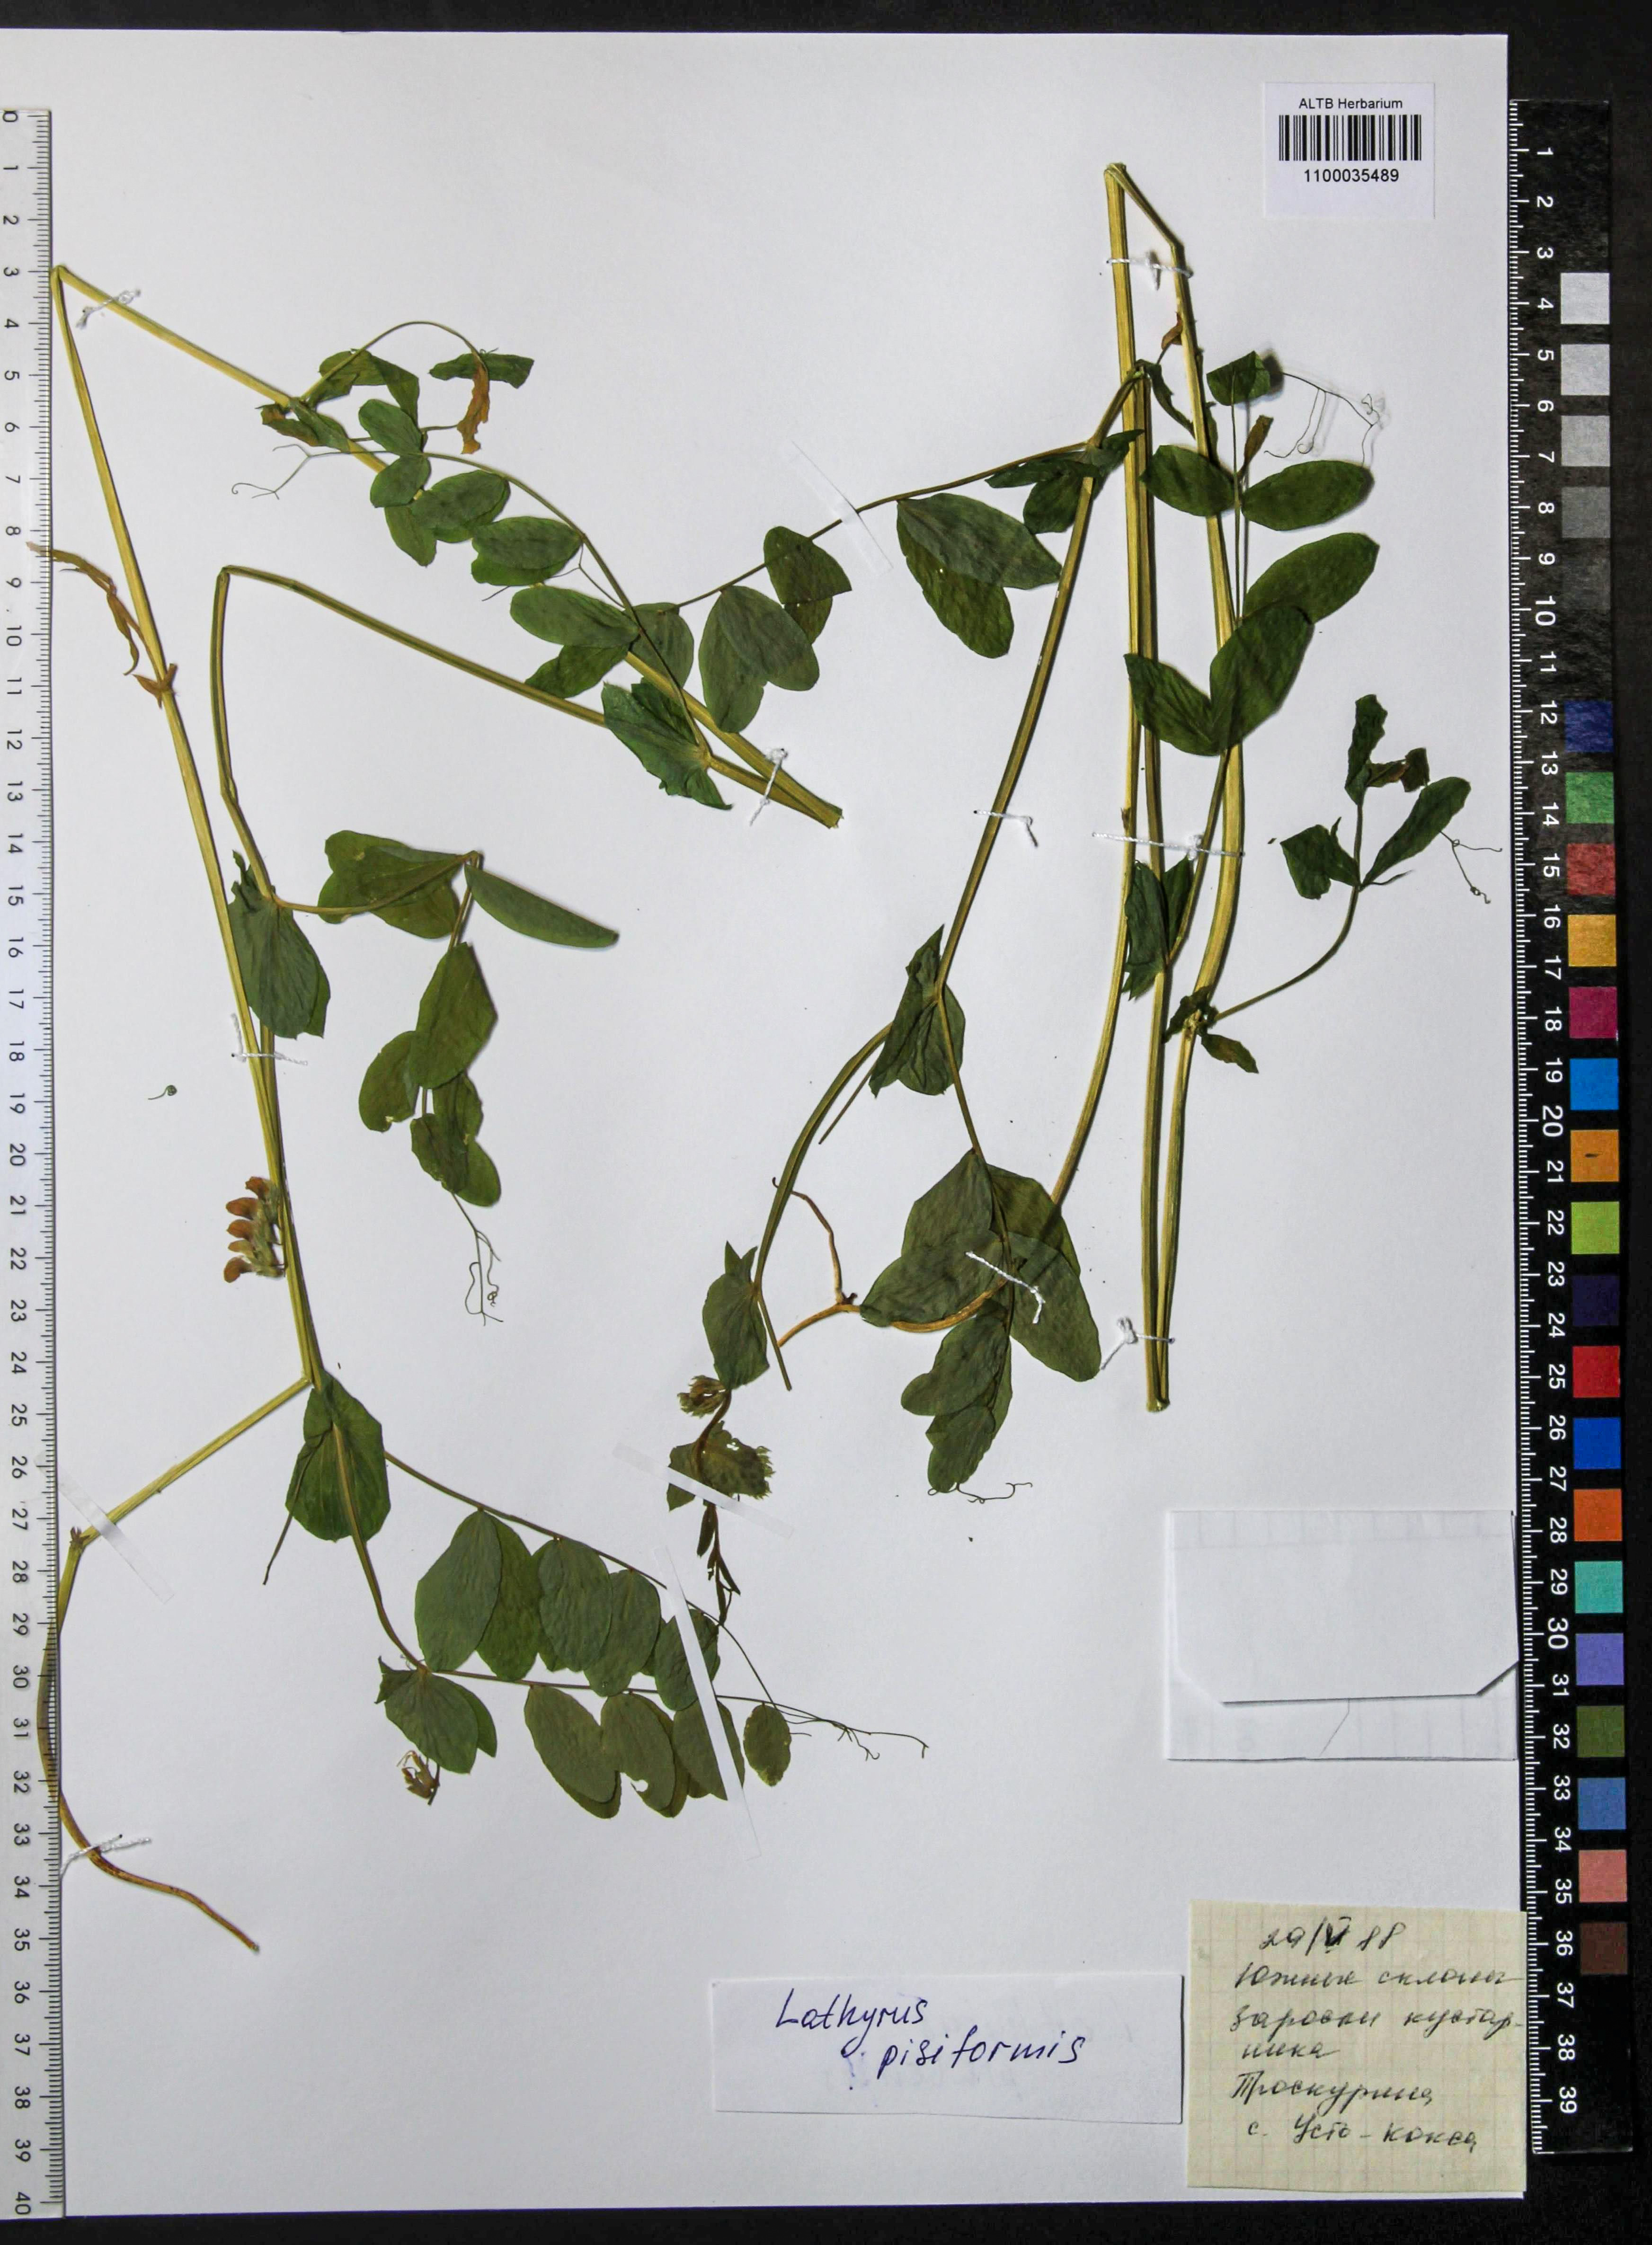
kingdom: Plantae
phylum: Tracheophyta
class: Magnoliopsida
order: Fabales
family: Fabaceae
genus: Lathyrus
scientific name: Lathyrus pisiformis
